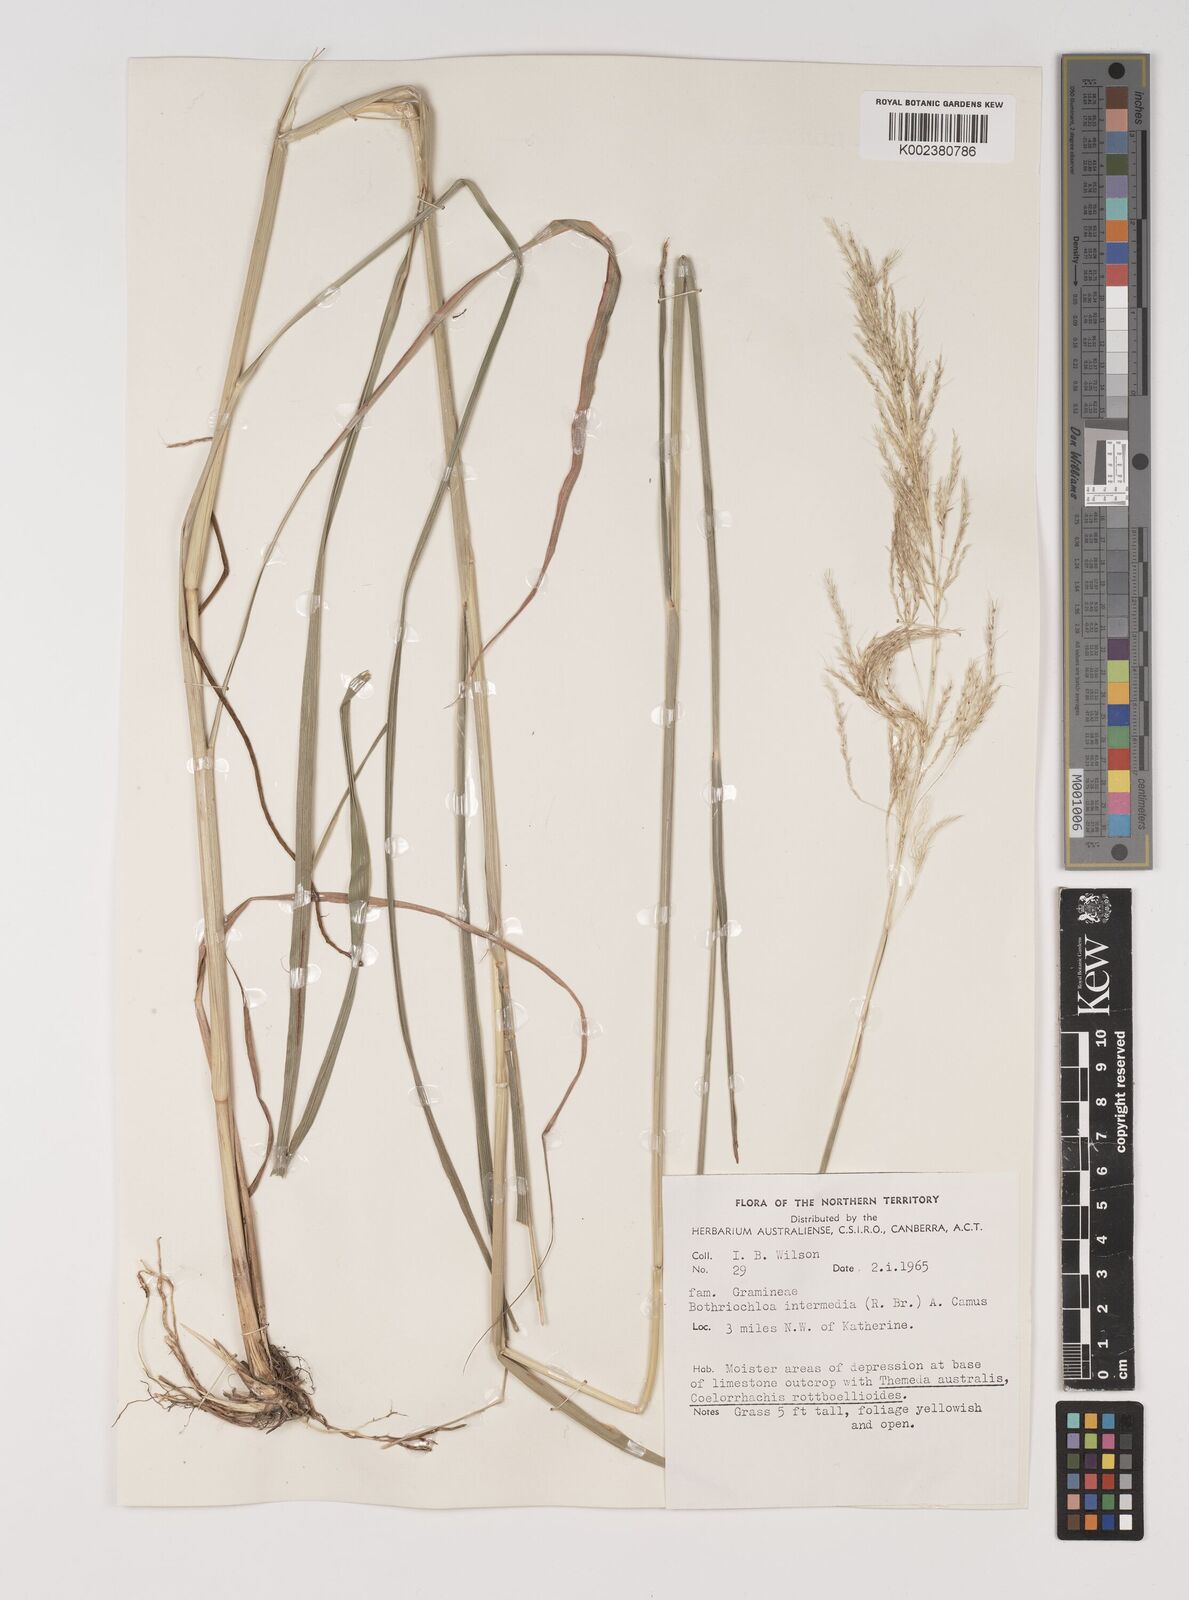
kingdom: Plantae
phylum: Tracheophyta
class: Liliopsida
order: Poales
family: Poaceae
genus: Bothriochloa
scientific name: Bothriochloa bladhii
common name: Caucasian bluestem
